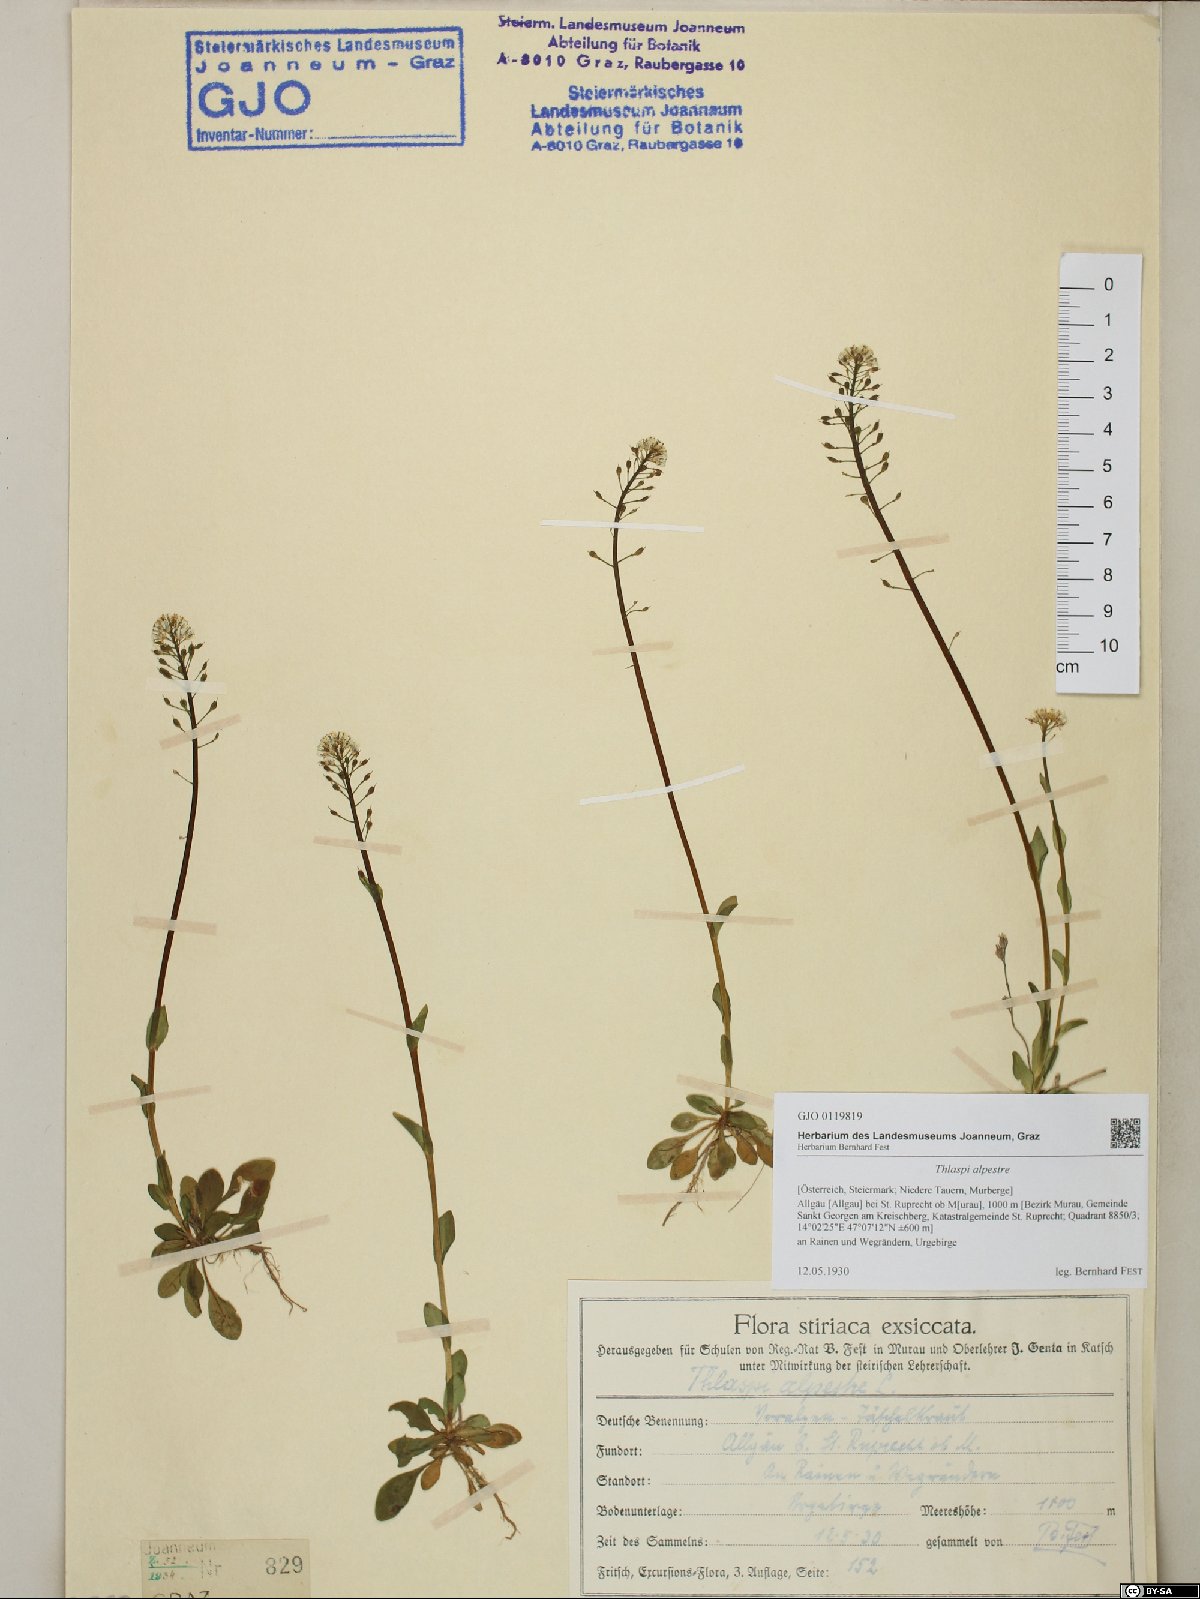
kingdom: Plantae
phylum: Tracheophyta
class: Magnoliopsida
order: Brassicales
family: Brassicaceae
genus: Noccaea
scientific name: Noccaea alpestris
